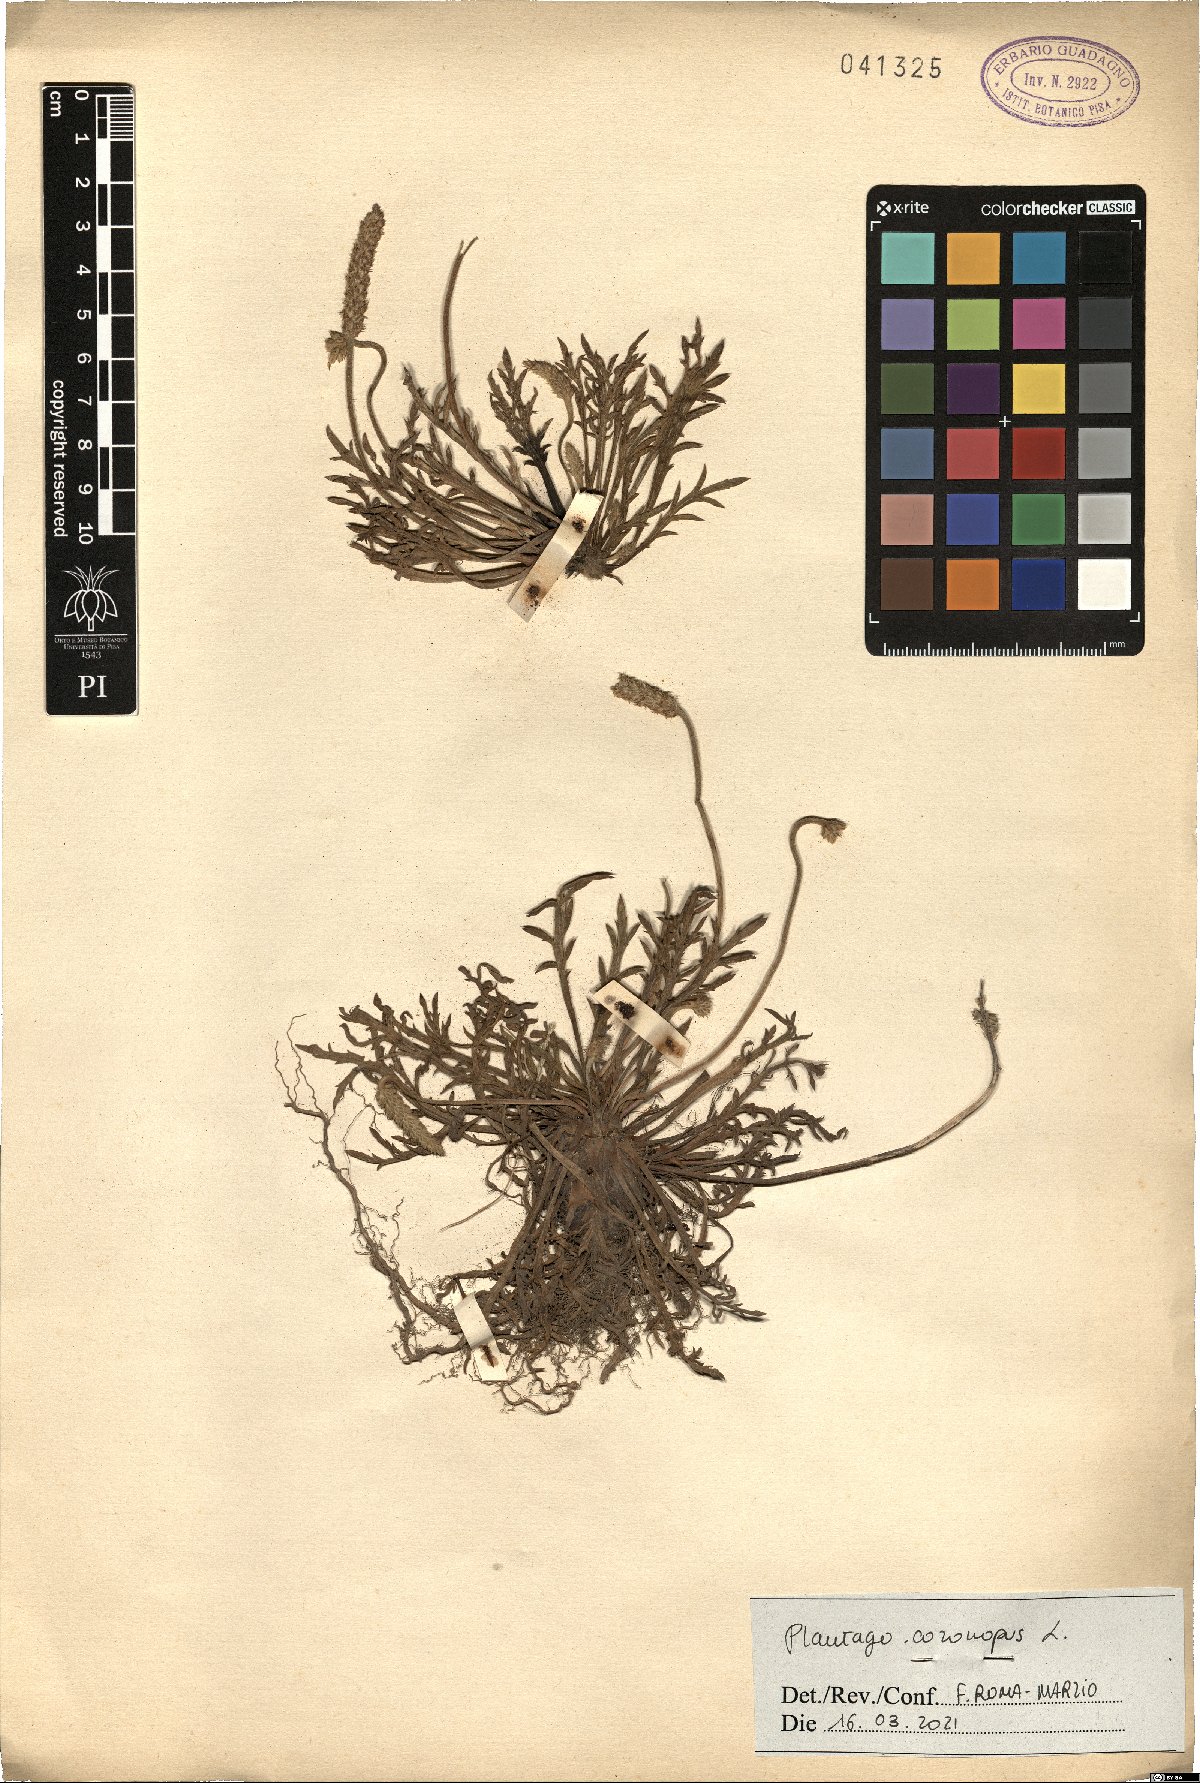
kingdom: Plantae
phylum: Tracheophyta
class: Magnoliopsida
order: Lamiales
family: Plantaginaceae
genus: Plantago
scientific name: Plantago coronopus
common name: Buck's-horn plantain
